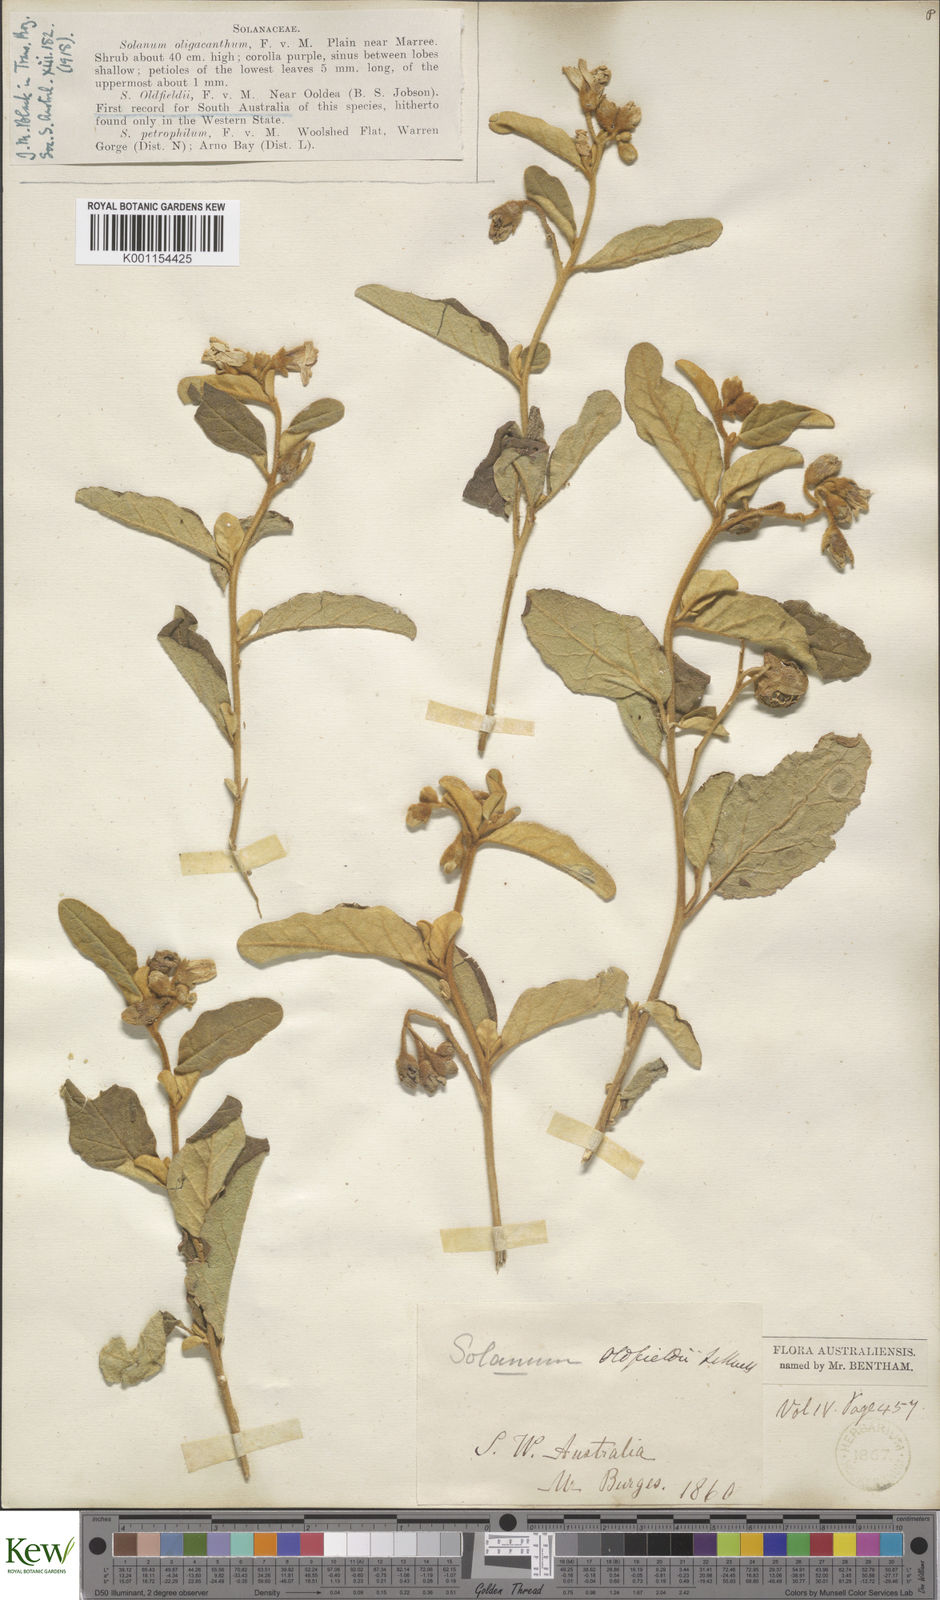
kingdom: Plantae
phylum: Tracheophyta
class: Magnoliopsida
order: Solanales
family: Solanaceae
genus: Solanum
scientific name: Solanum oldfieldii
